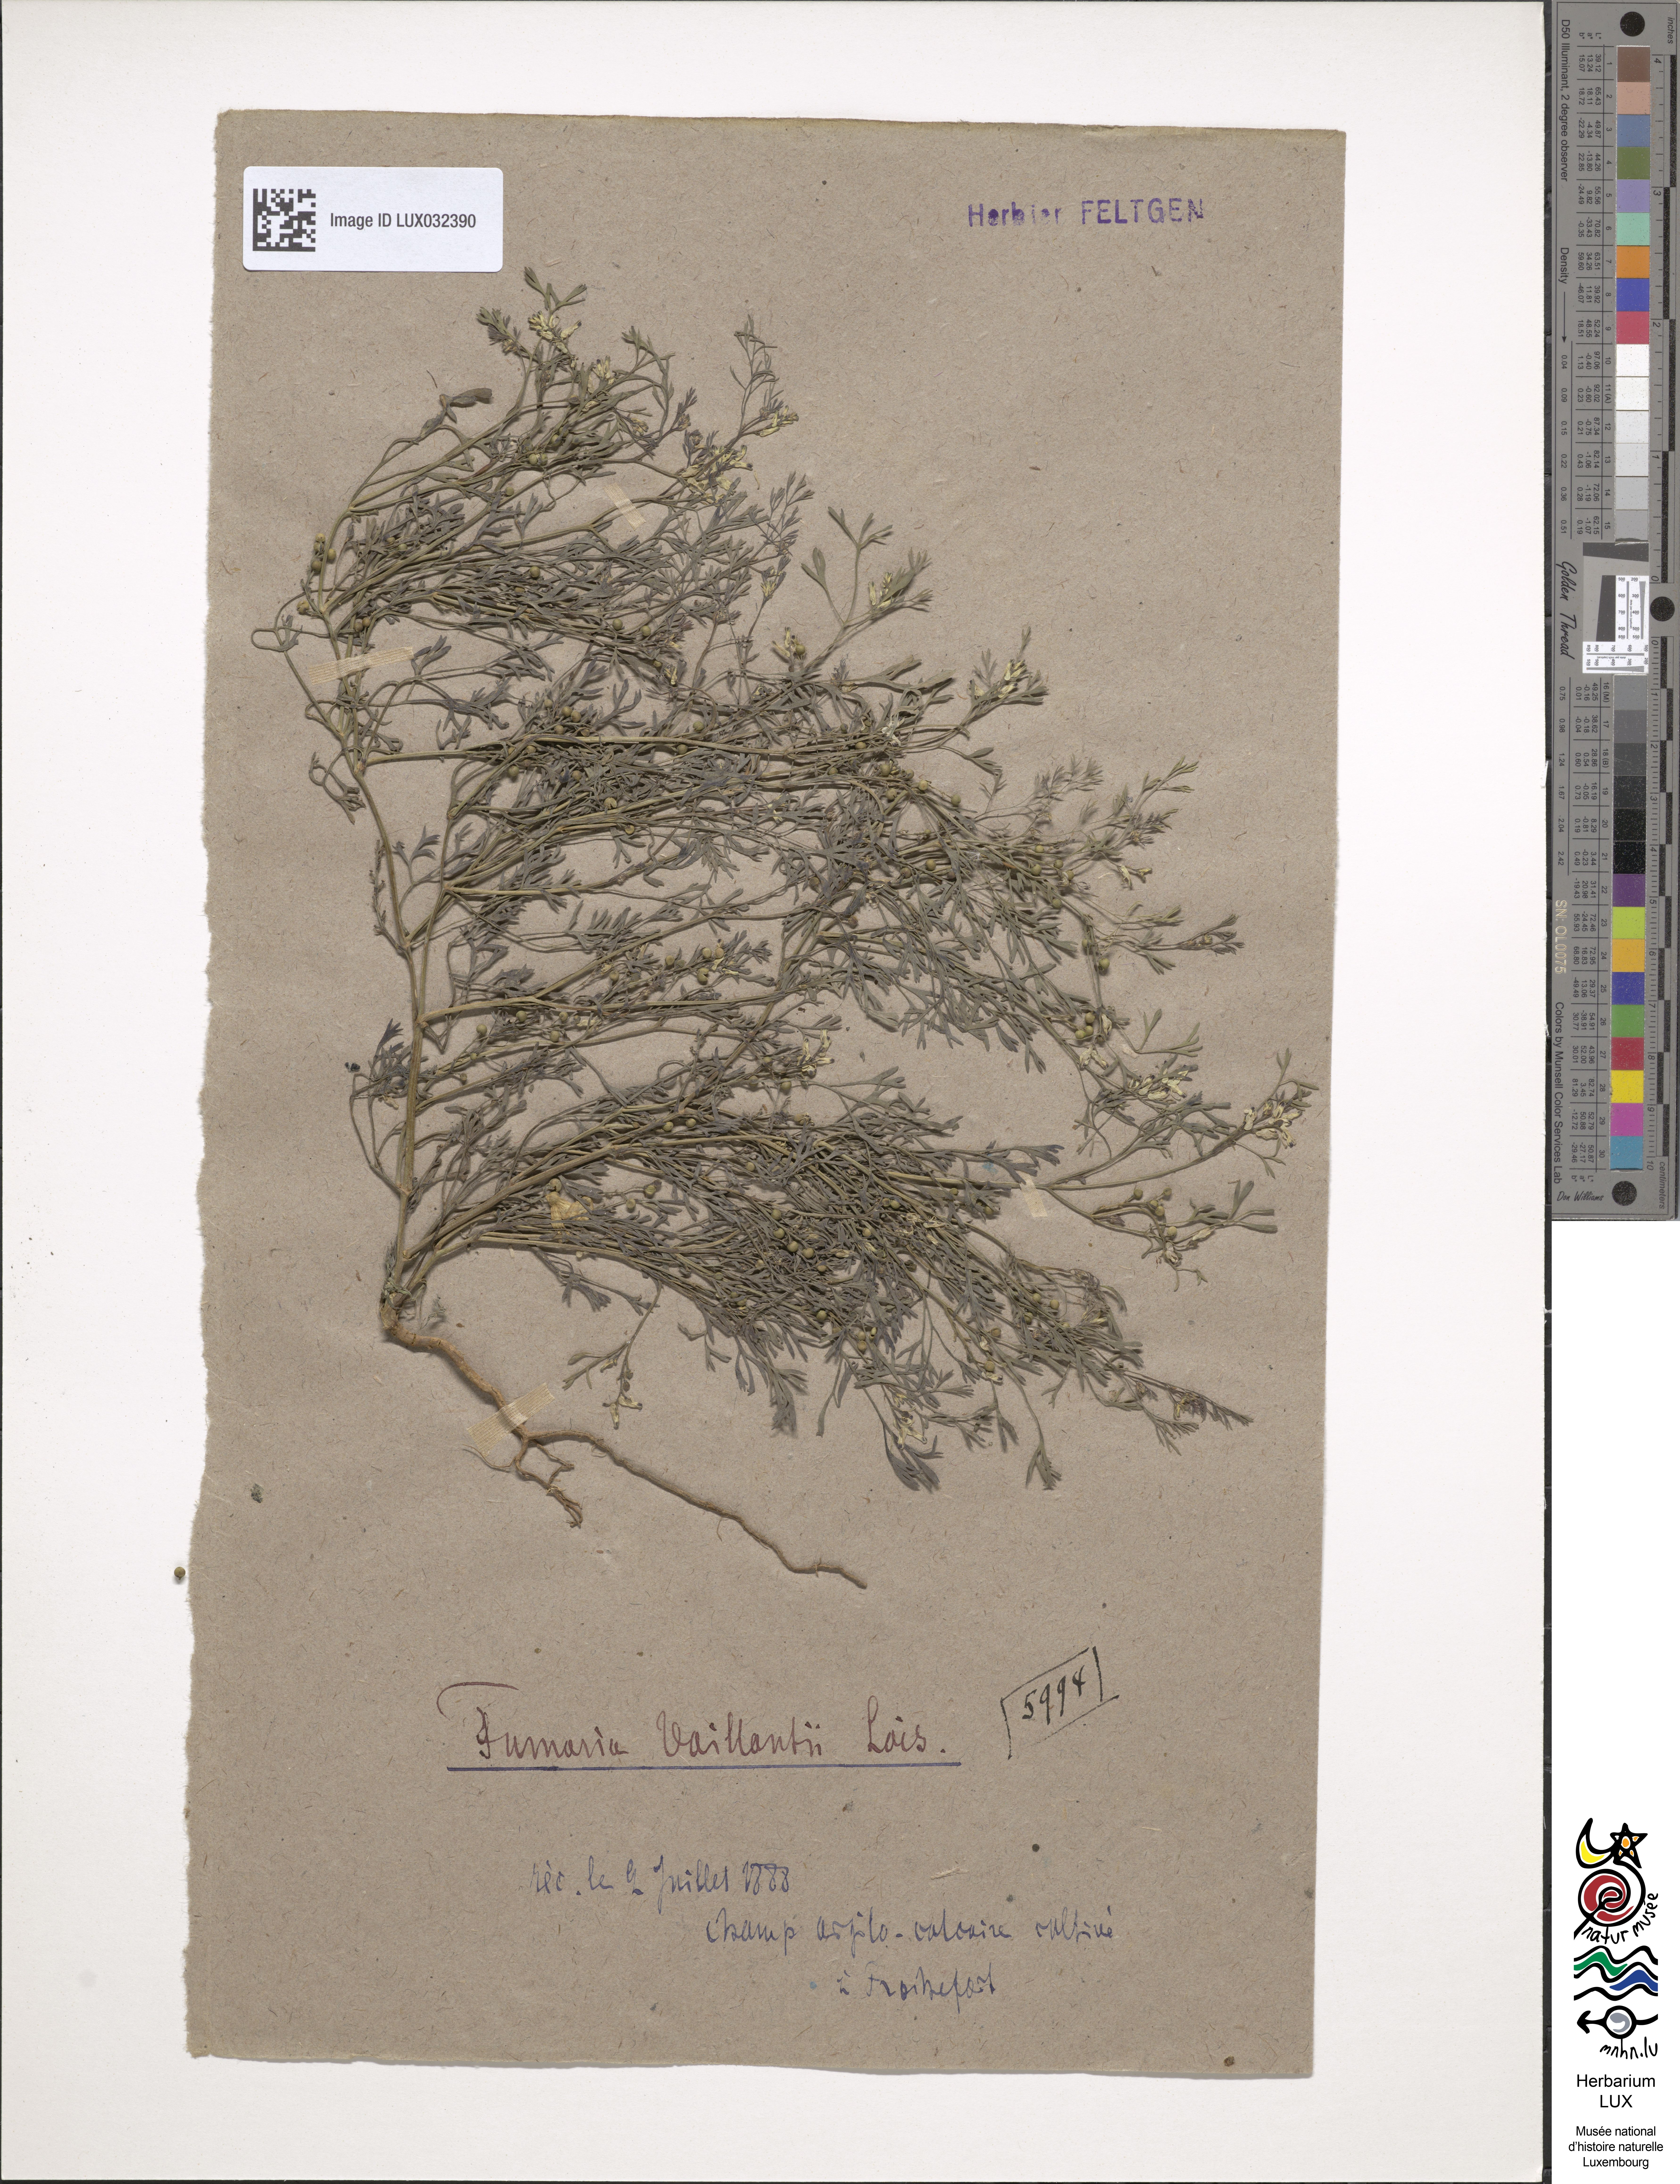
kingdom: Plantae
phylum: Tracheophyta
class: Magnoliopsida
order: Ranunculales
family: Papaveraceae
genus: Fumaria
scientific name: Fumaria vaillantii
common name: Few-flowered fumitory
